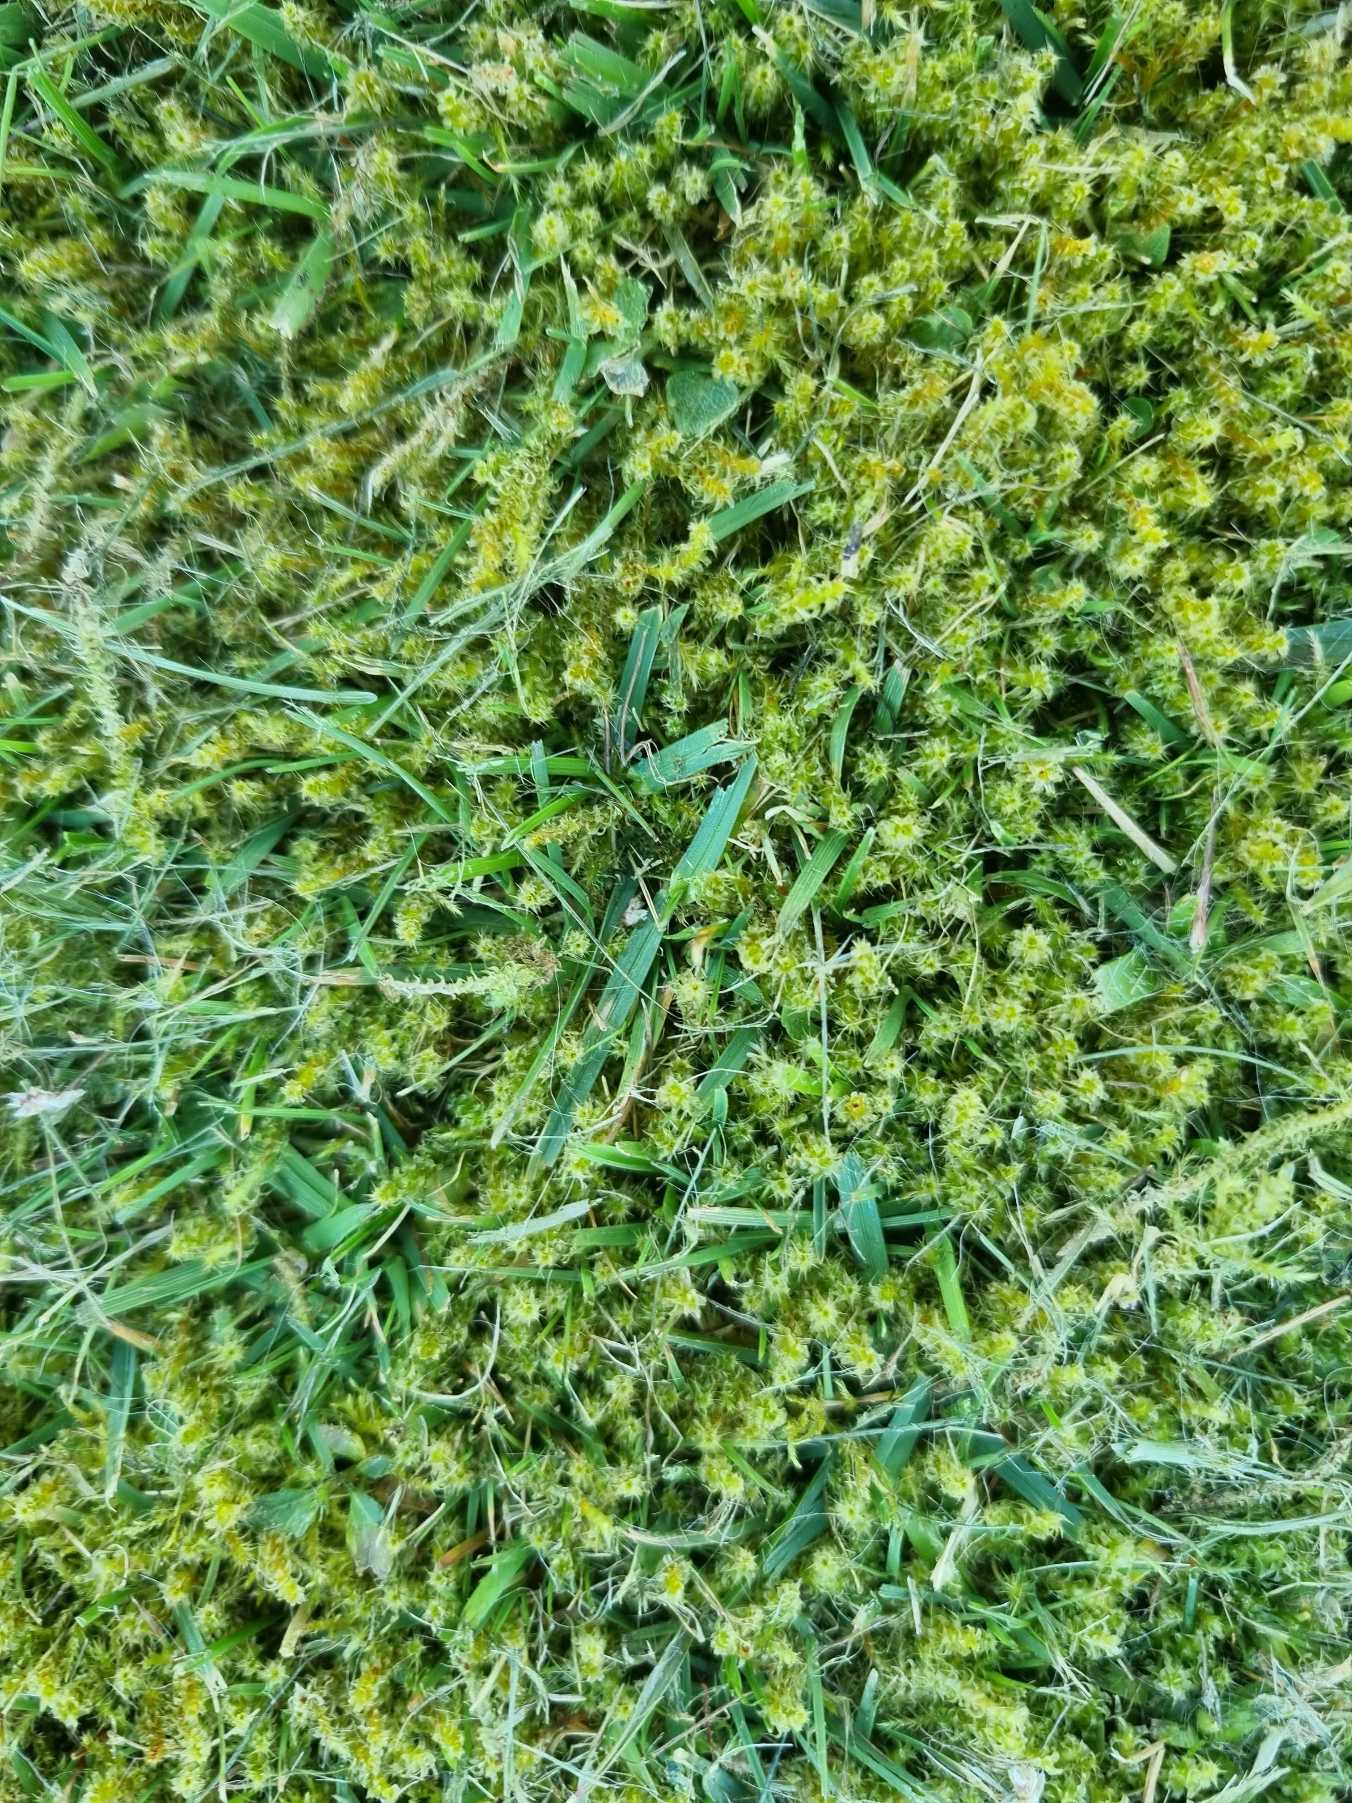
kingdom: Plantae
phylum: Bryophyta
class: Bryopsida
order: Hypnales
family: Hylocomiaceae
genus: Rhytidiadelphus
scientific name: Rhytidiadelphus squarrosus
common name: Plæne-kransemos
